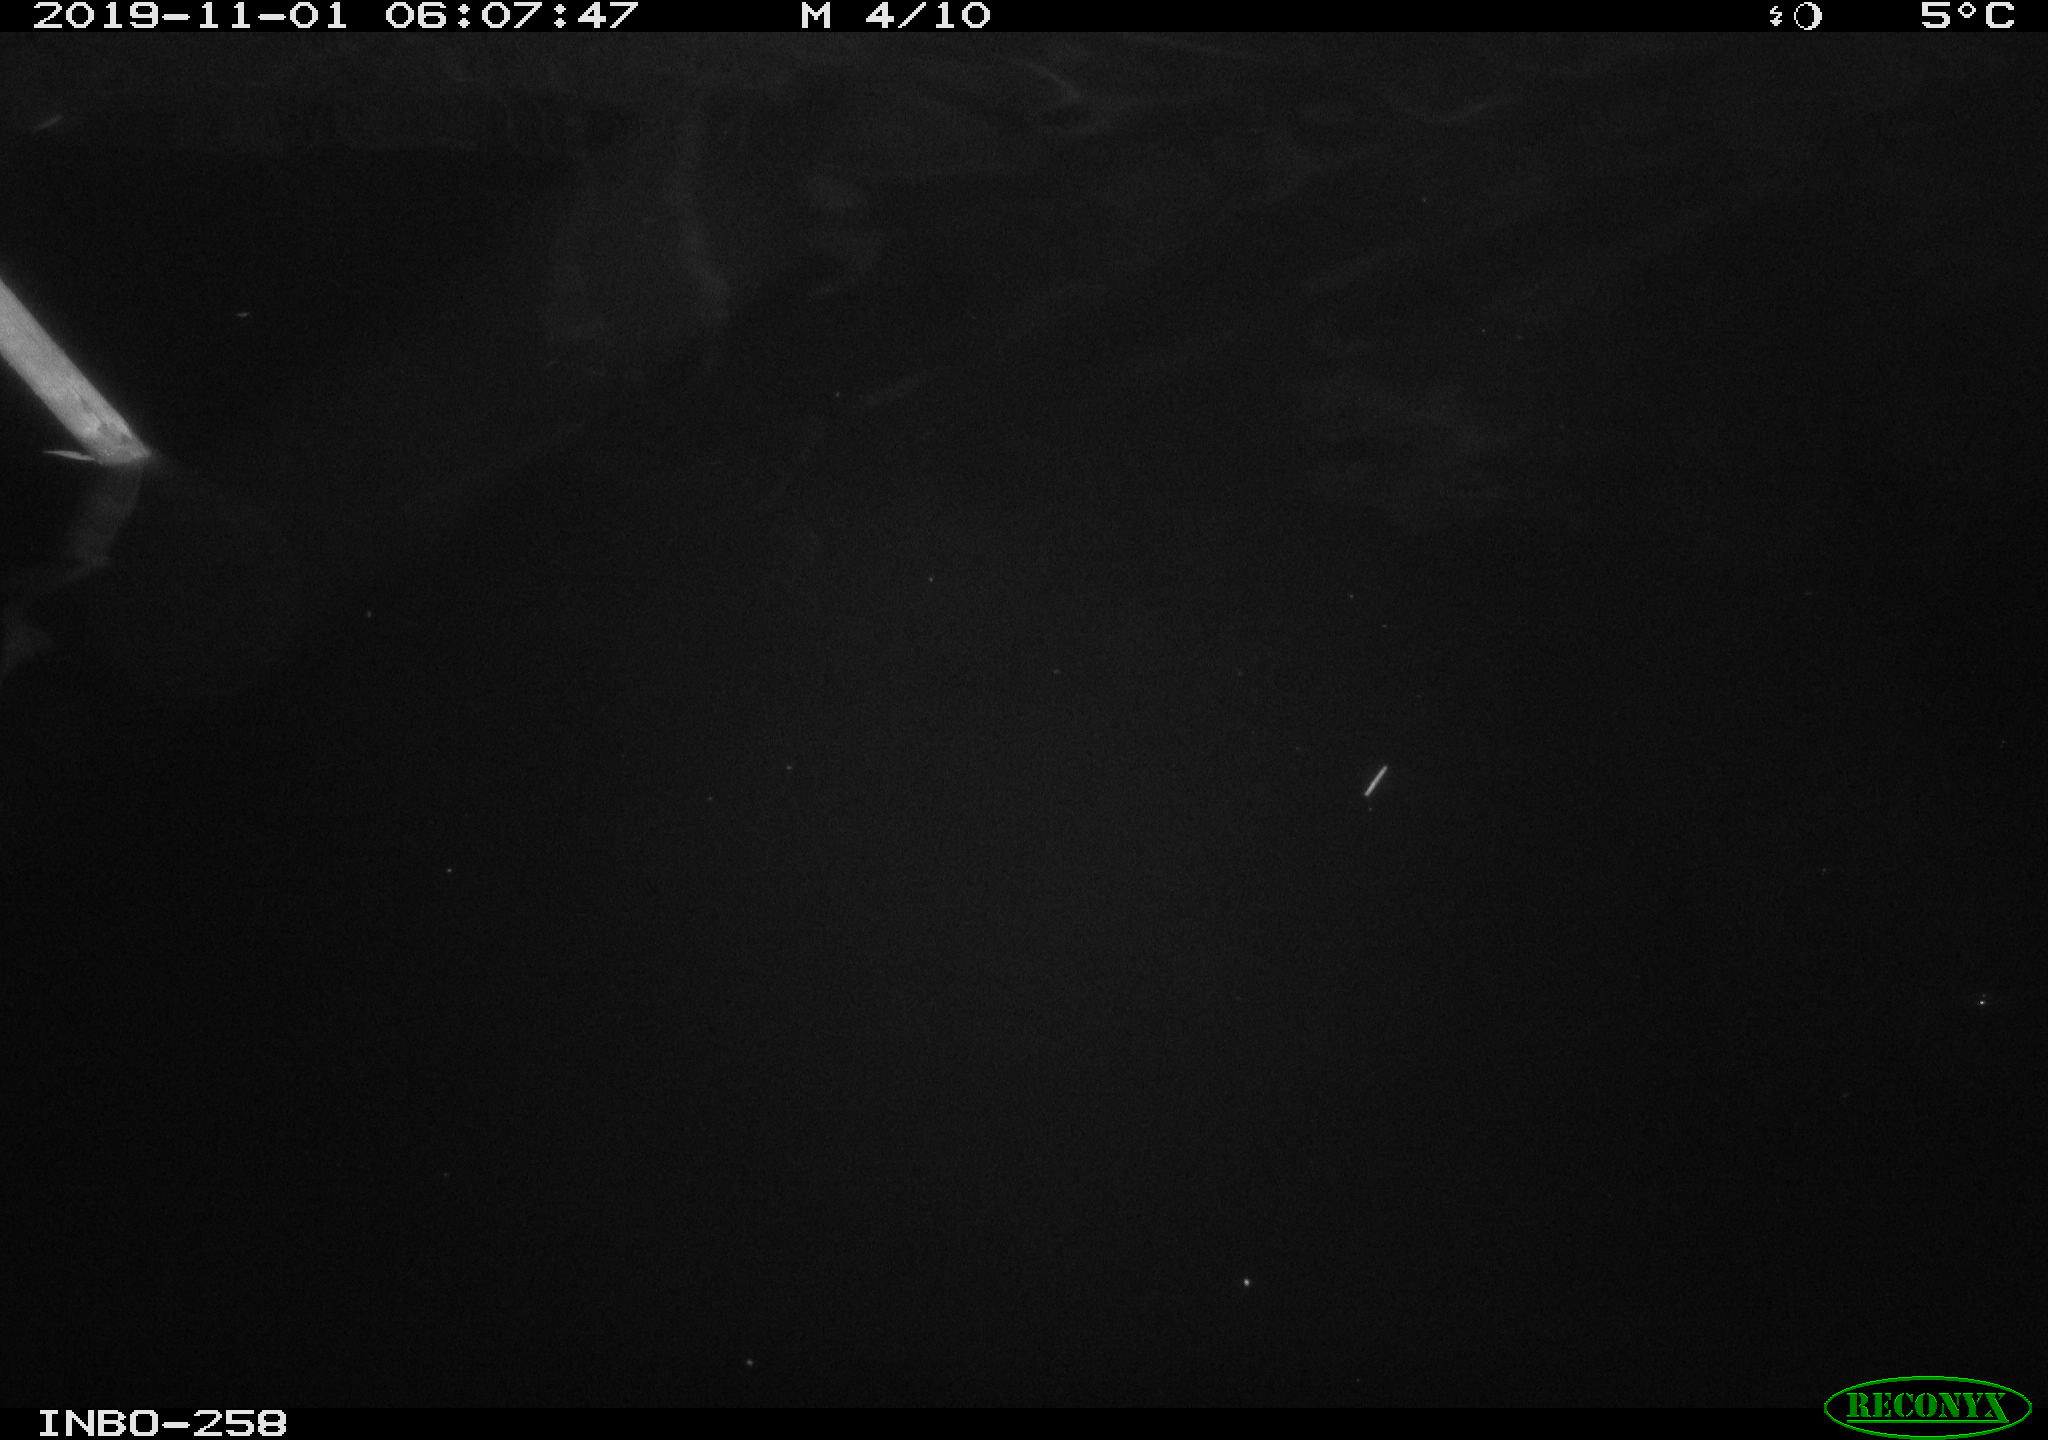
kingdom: Animalia
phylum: Chordata
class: Aves
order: Anseriformes
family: Anatidae
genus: Anas
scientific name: Anas platyrhynchos
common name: Mallard
